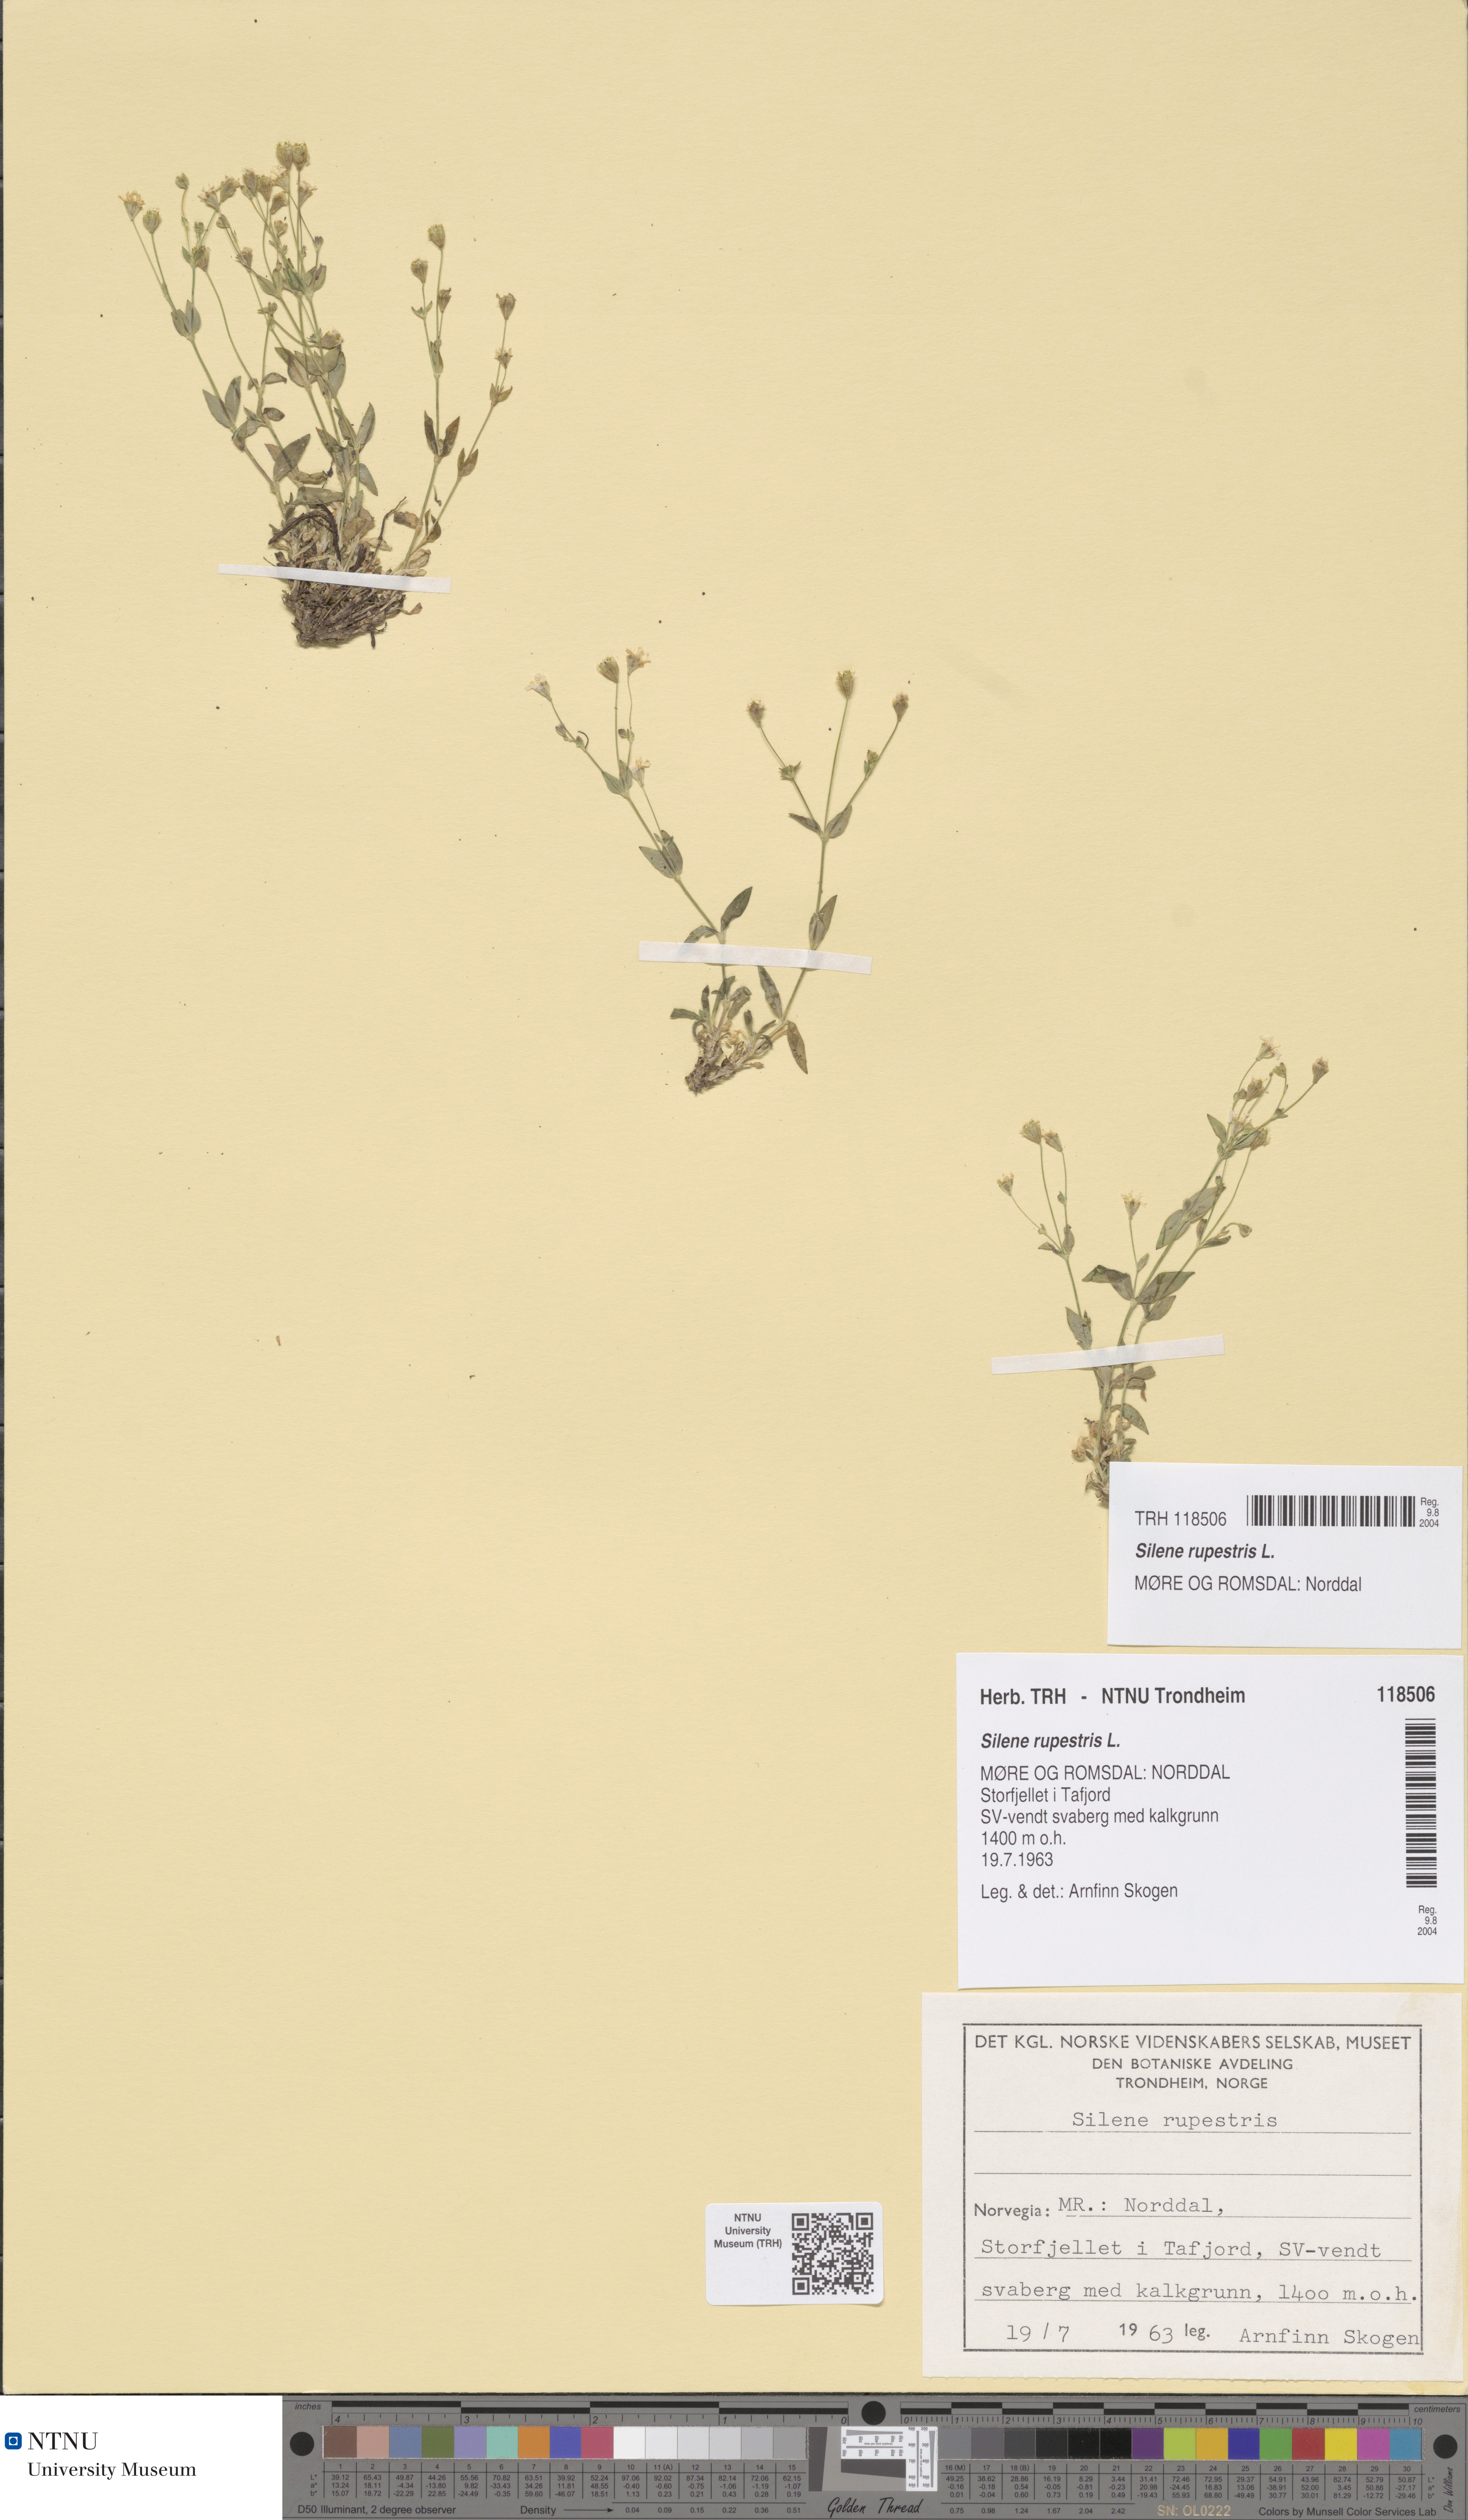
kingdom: Plantae
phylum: Tracheophyta
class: Magnoliopsida
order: Caryophyllales
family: Caryophyllaceae
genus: Atocion
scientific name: Atocion rupestre
